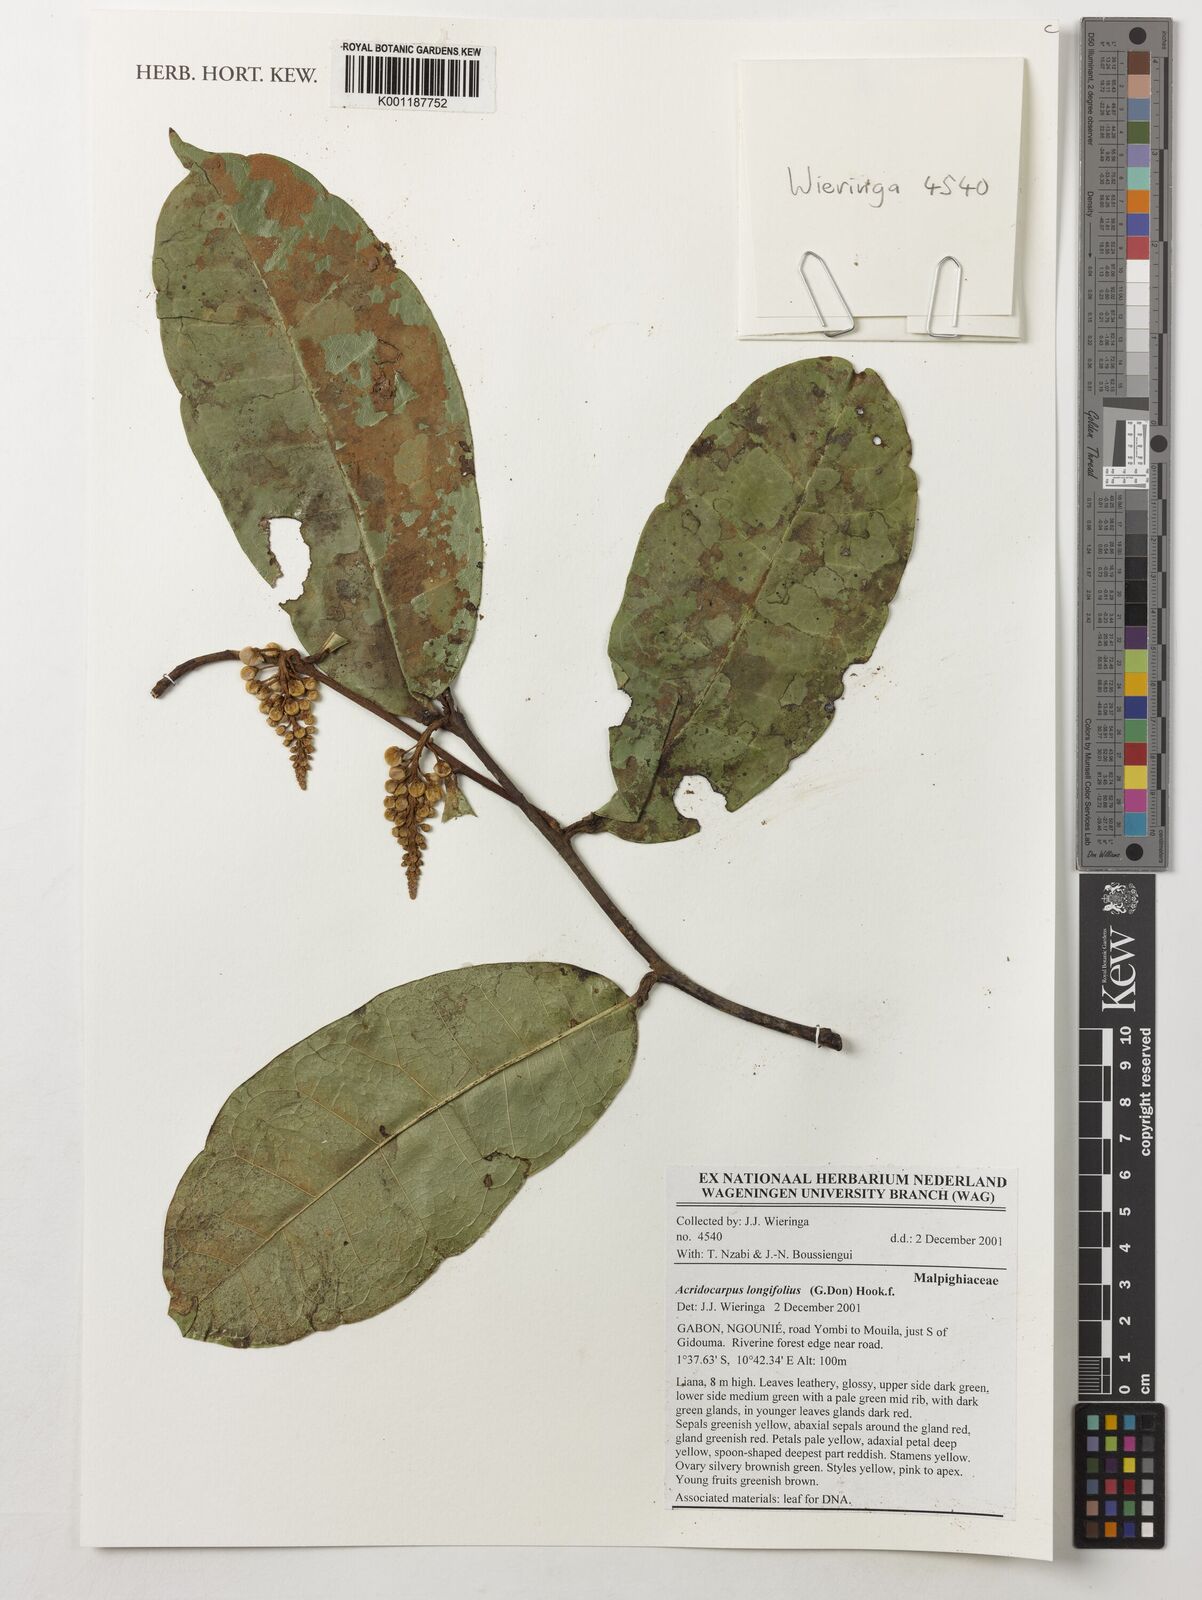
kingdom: Plantae
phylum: Tracheophyta
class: Magnoliopsida
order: Malpighiales
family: Malpighiaceae
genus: Acridocarpus
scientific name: Acridocarpus longifolius
